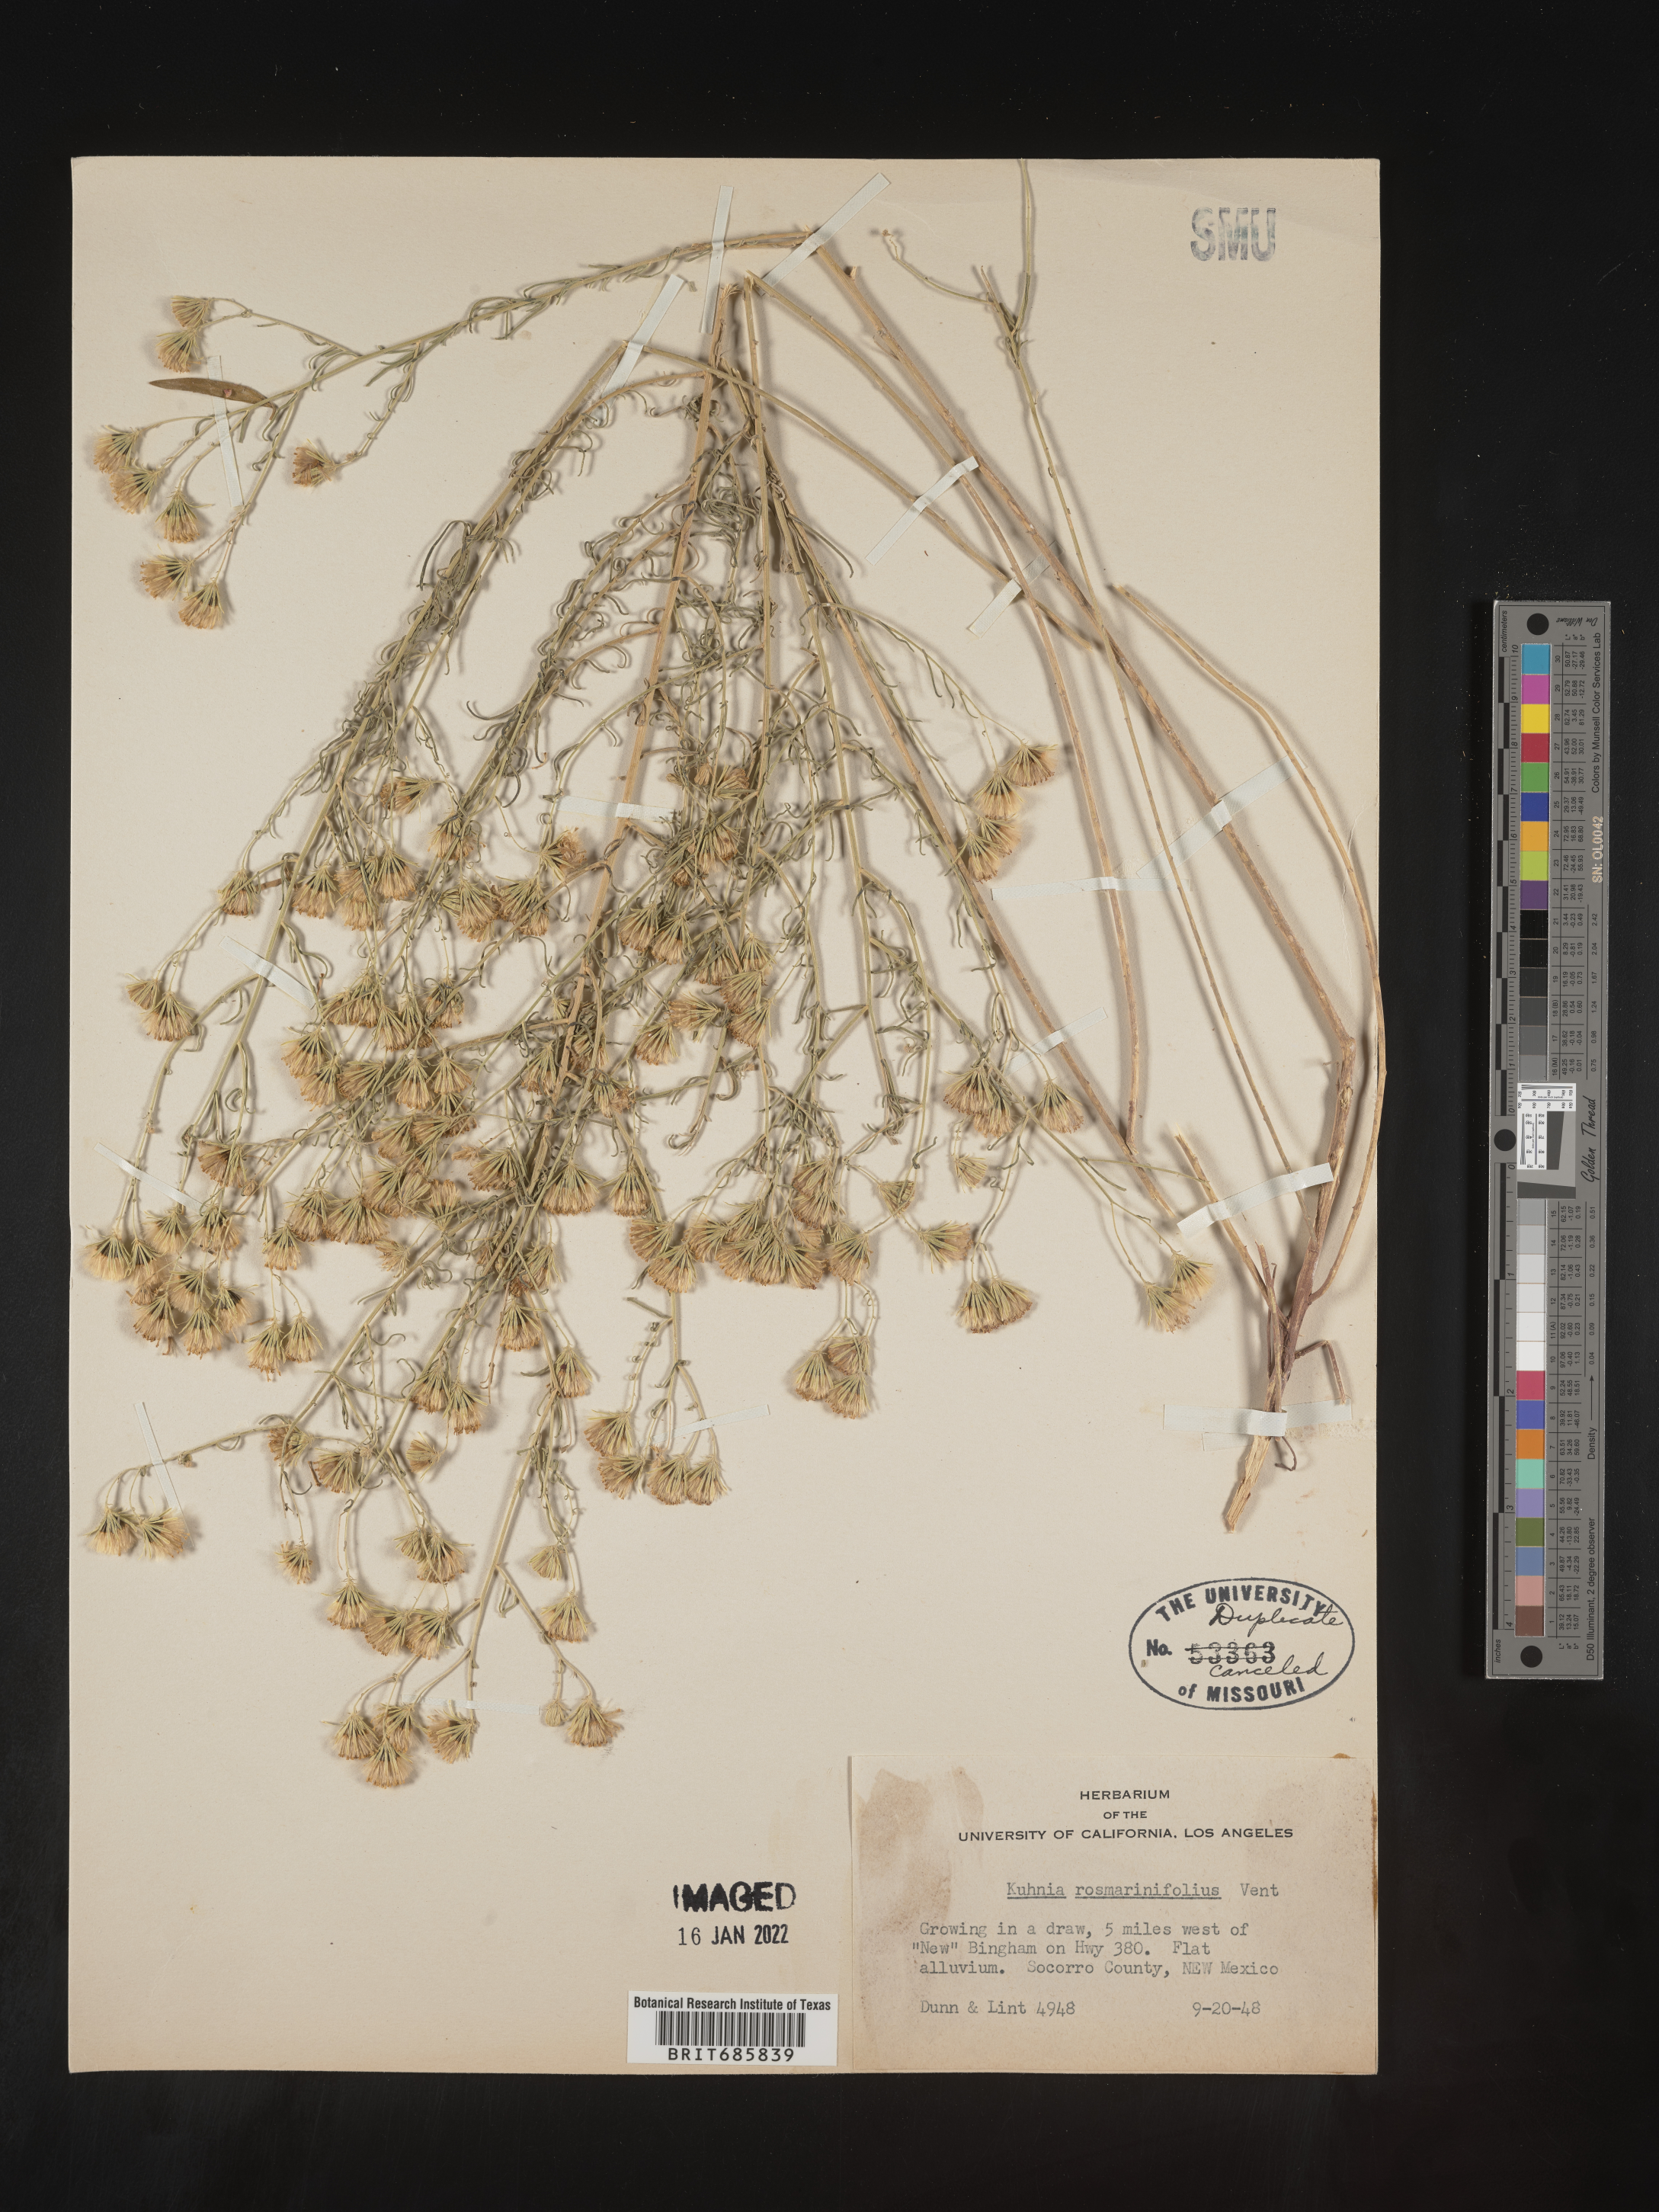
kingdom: Plantae
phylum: Tracheophyta
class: Magnoliopsida
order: Asterales
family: Asteraceae
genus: Brickellia
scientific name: Brickellia leptophylla
